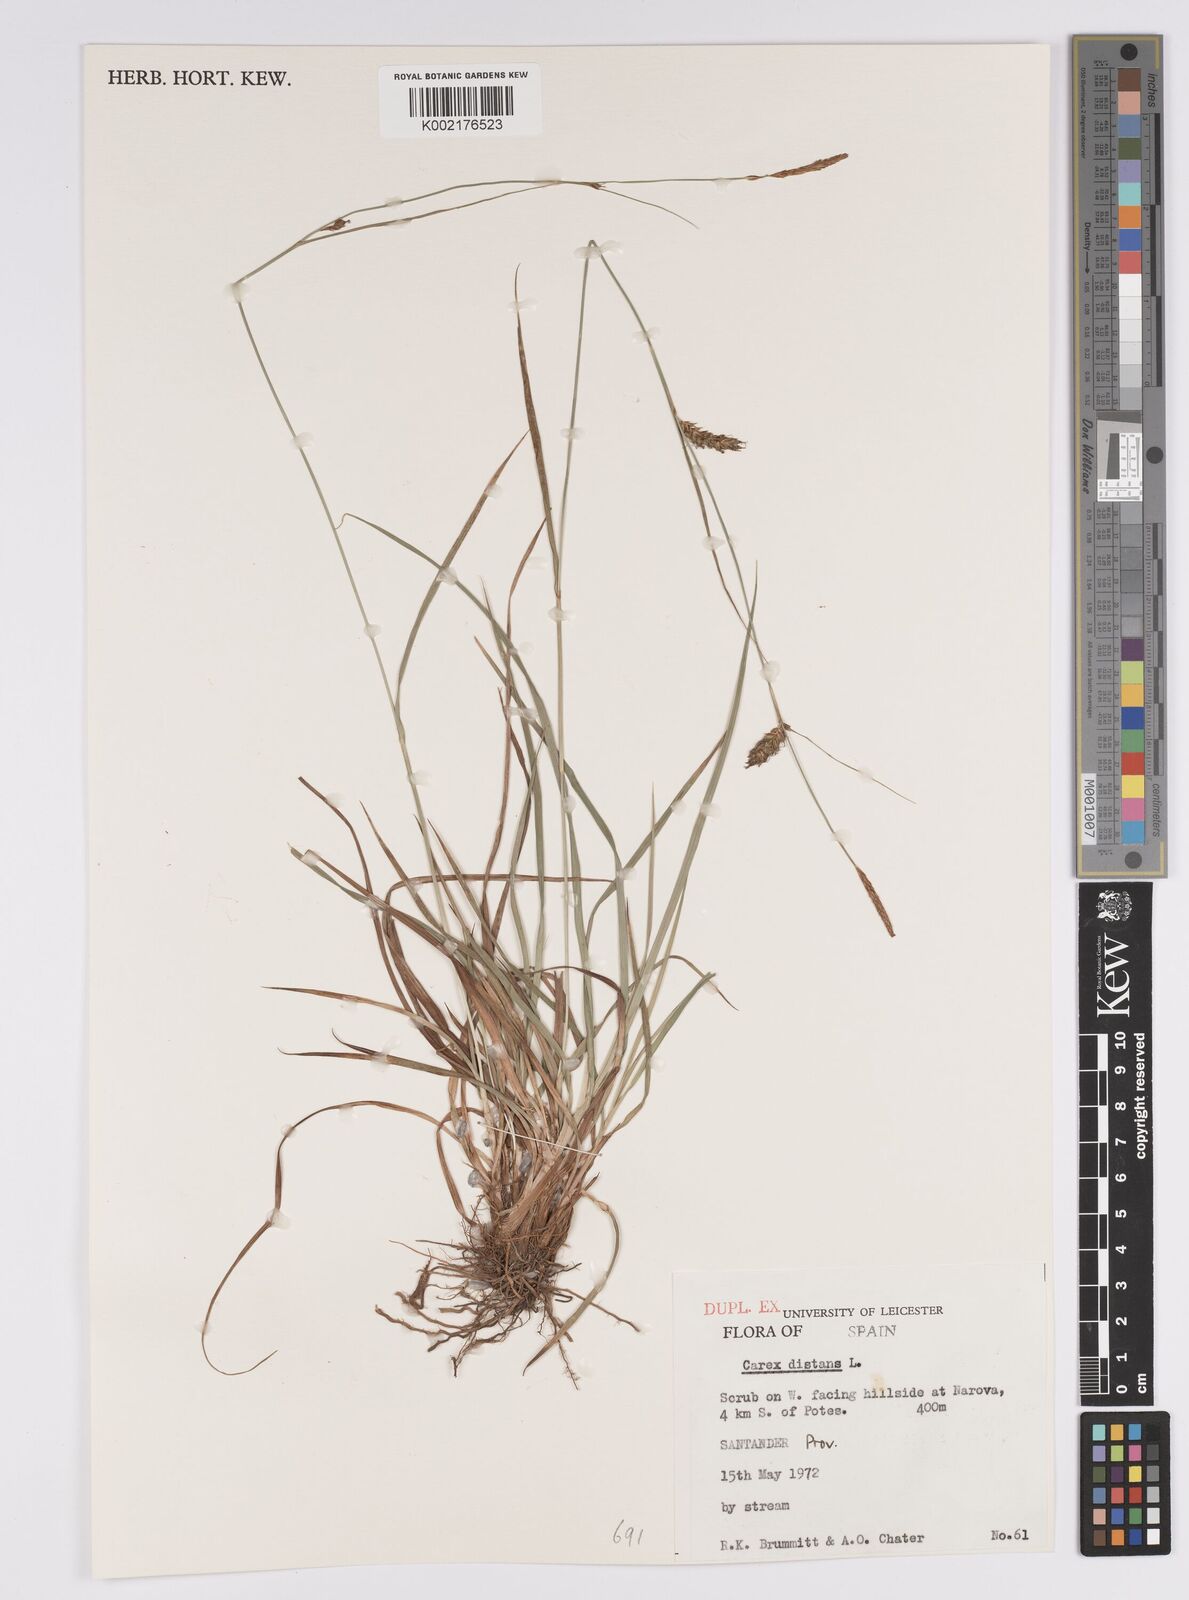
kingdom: Plantae
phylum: Tracheophyta
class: Liliopsida
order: Poales
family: Cyperaceae
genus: Carex
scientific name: Carex distans
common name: Distant sedge
